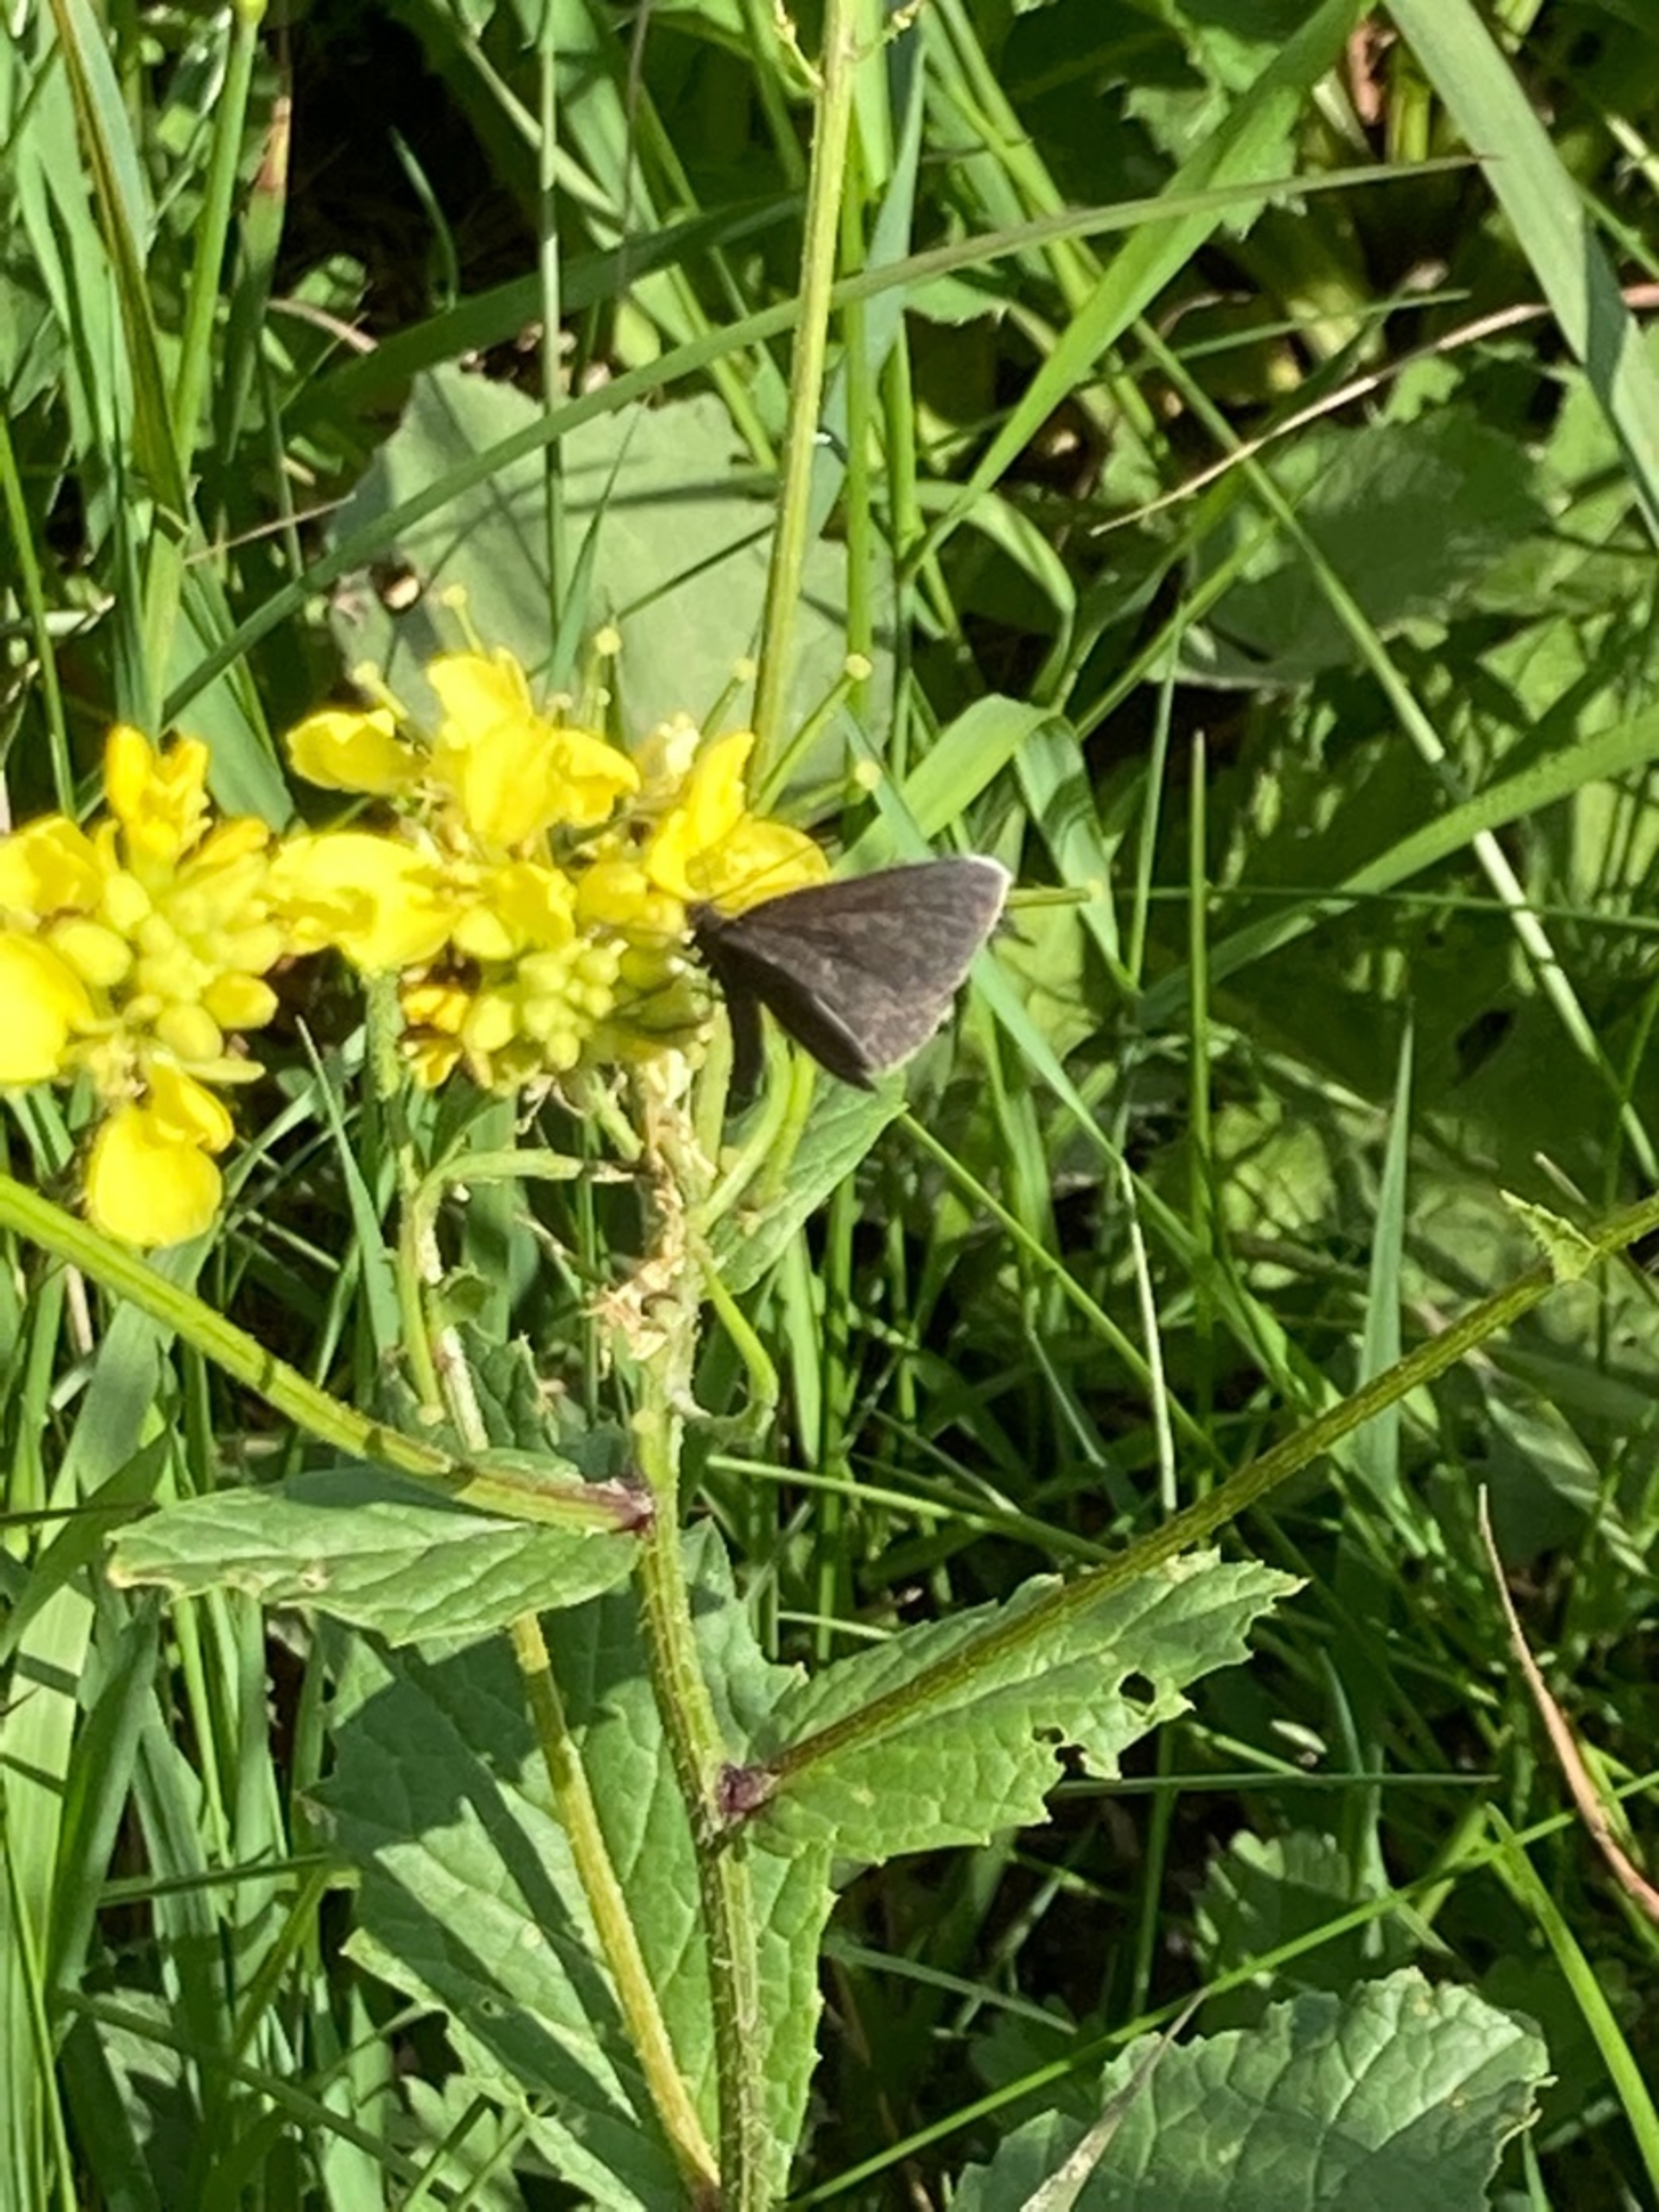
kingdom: Animalia
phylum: Arthropoda
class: Insecta
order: Lepidoptera
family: Geometridae
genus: Odezia
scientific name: Odezia atrata
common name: Sort måler
